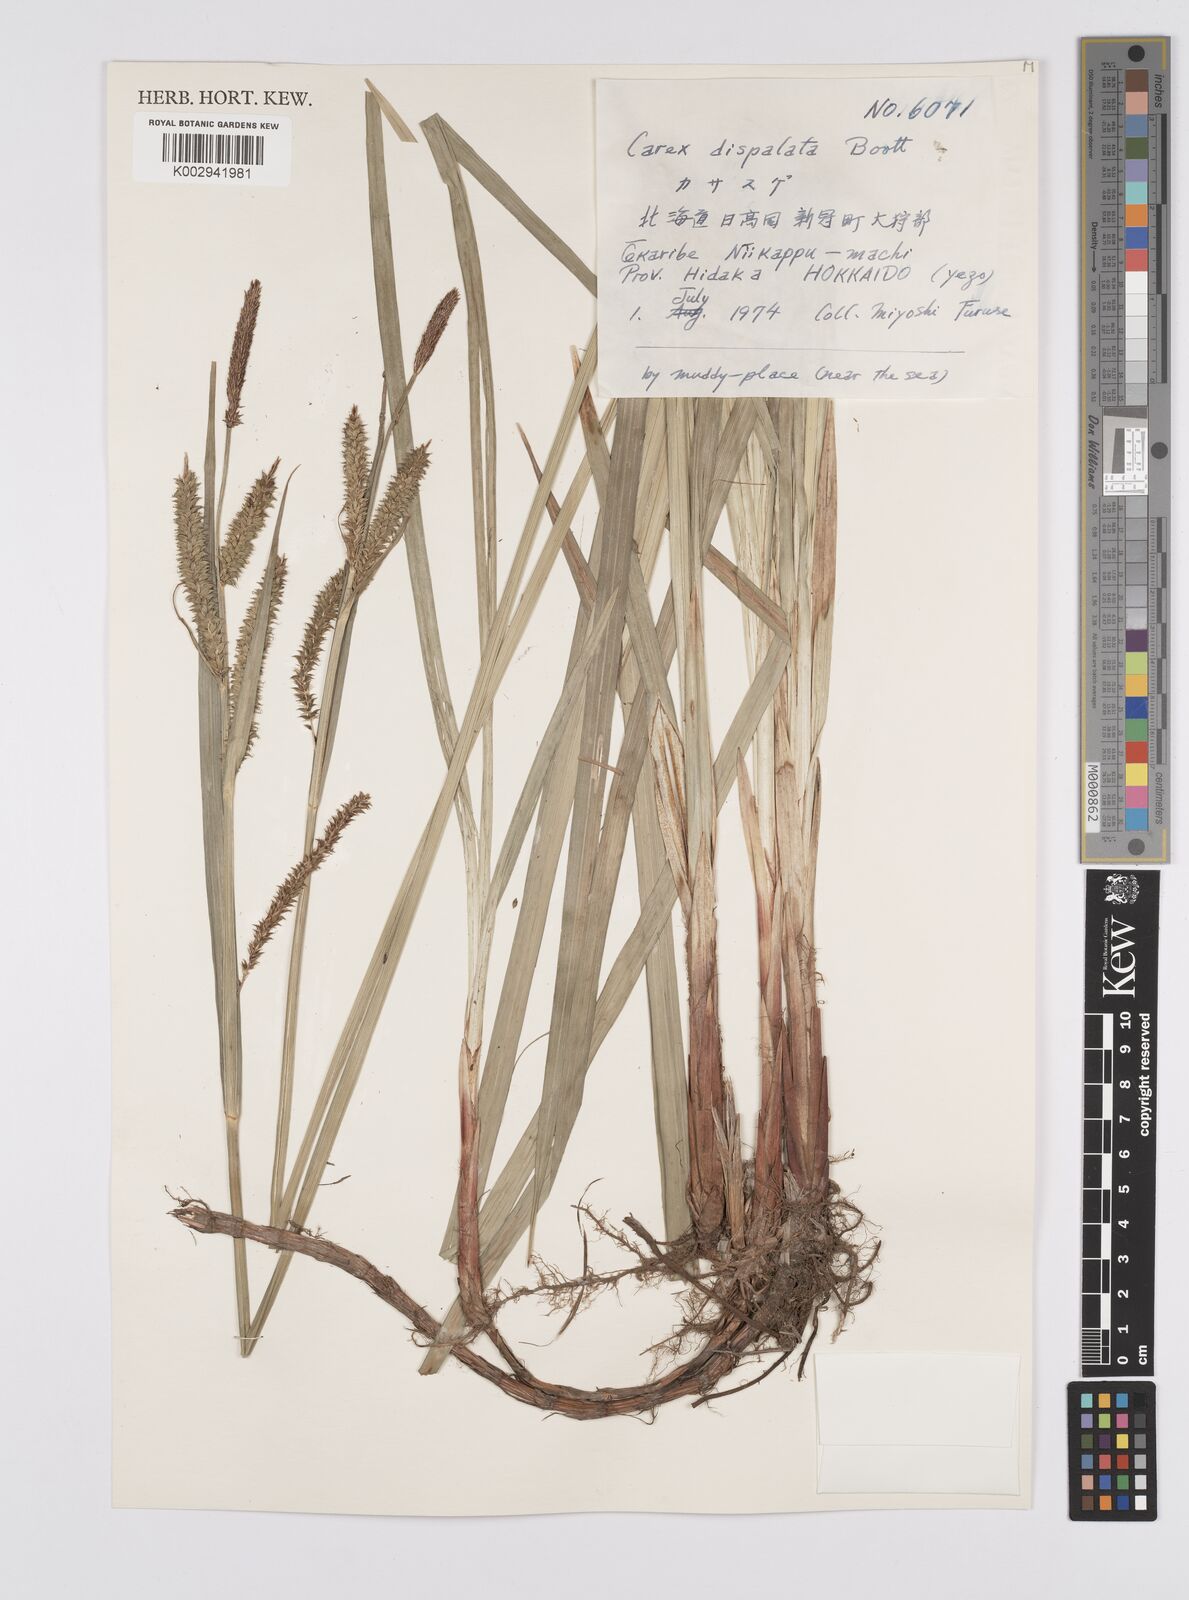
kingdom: Plantae
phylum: Tracheophyta
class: Liliopsida
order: Poales
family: Cyperaceae
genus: Carex
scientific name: Carex dispalata
